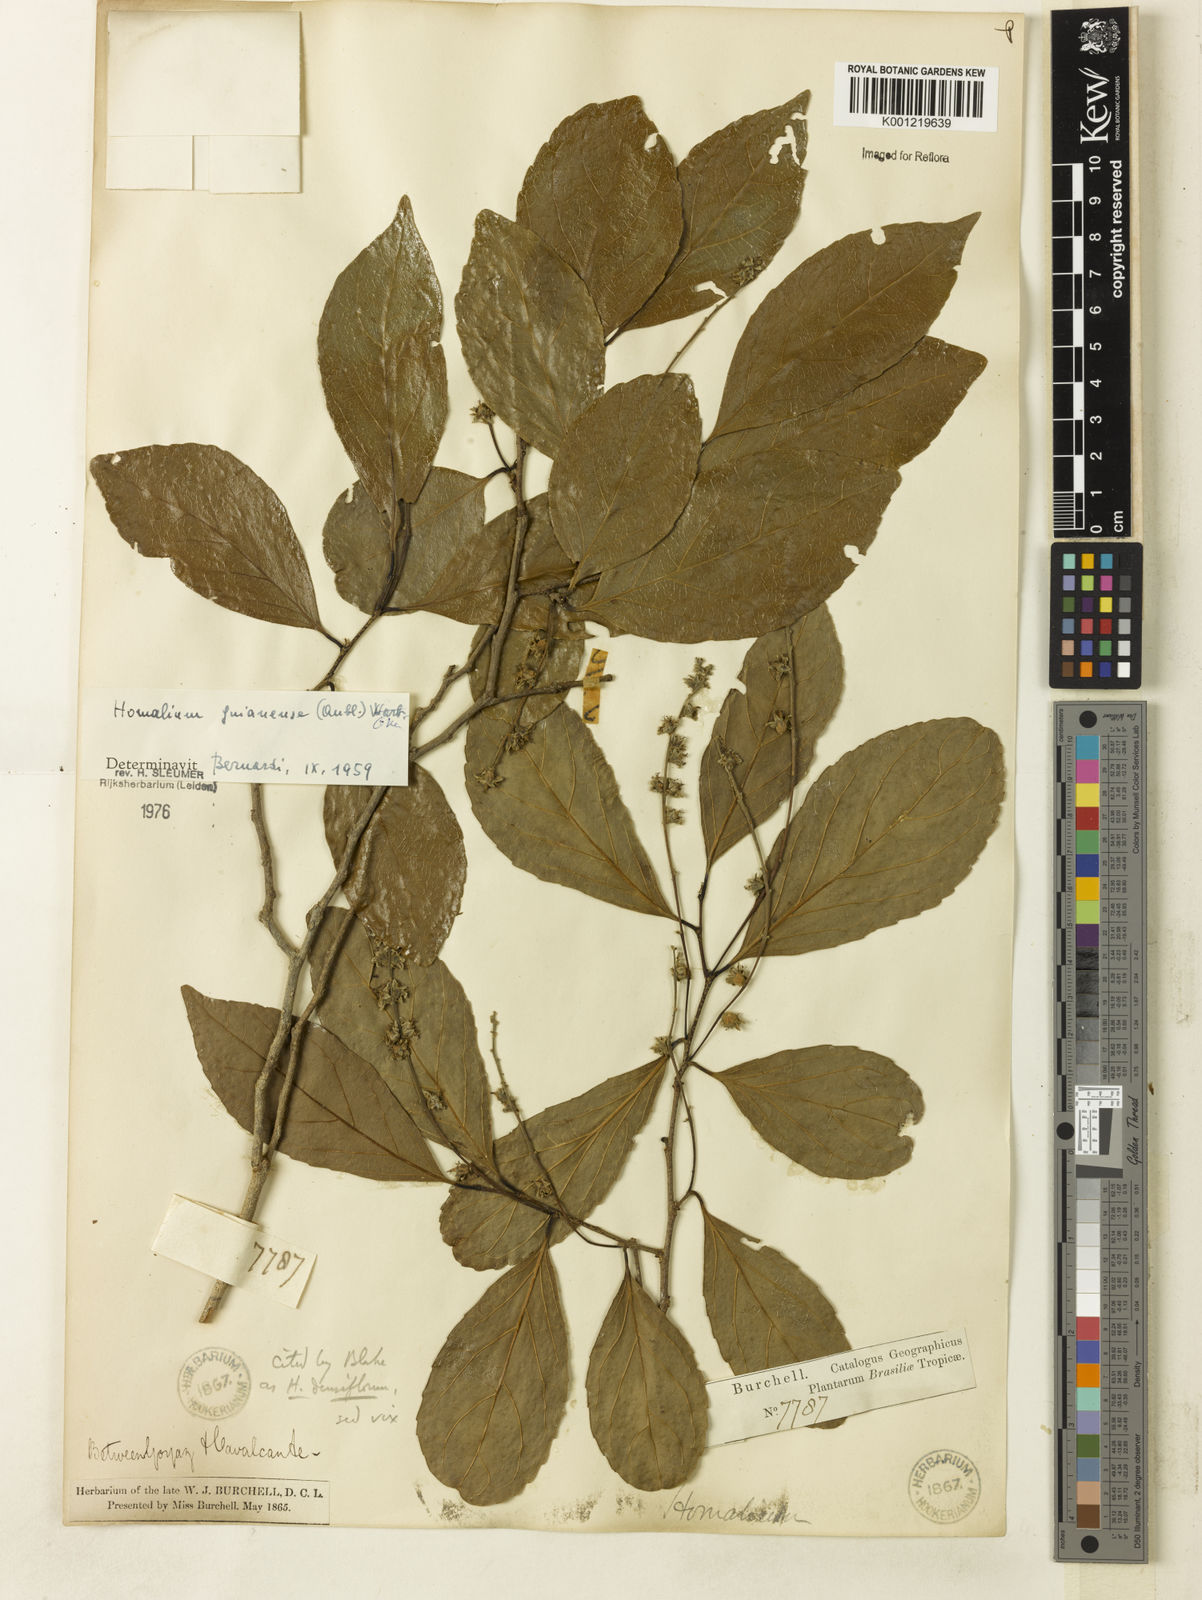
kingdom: Plantae
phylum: Tracheophyta
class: Magnoliopsida
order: Malpighiales
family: Salicaceae
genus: Homalium
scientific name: Homalium guianense
